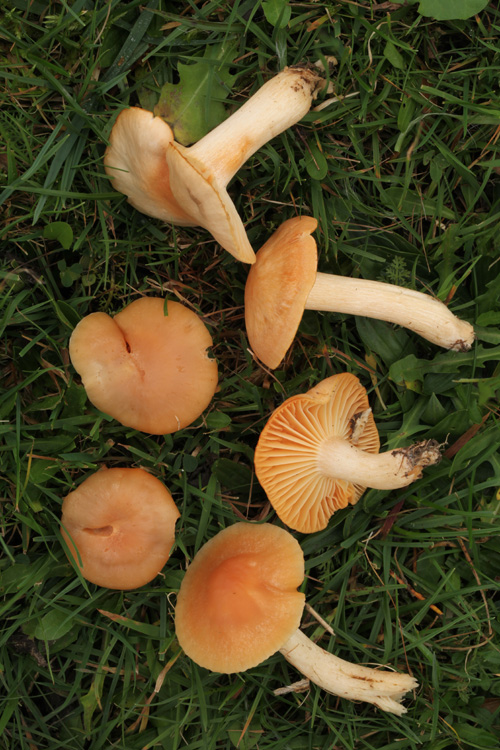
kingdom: Fungi
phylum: Basidiomycota
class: Agaricomycetes
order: Agaricales
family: Hygrophoraceae
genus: Cuphophyllus
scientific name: Cuphophyllus pratensis
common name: eng-vokshat
